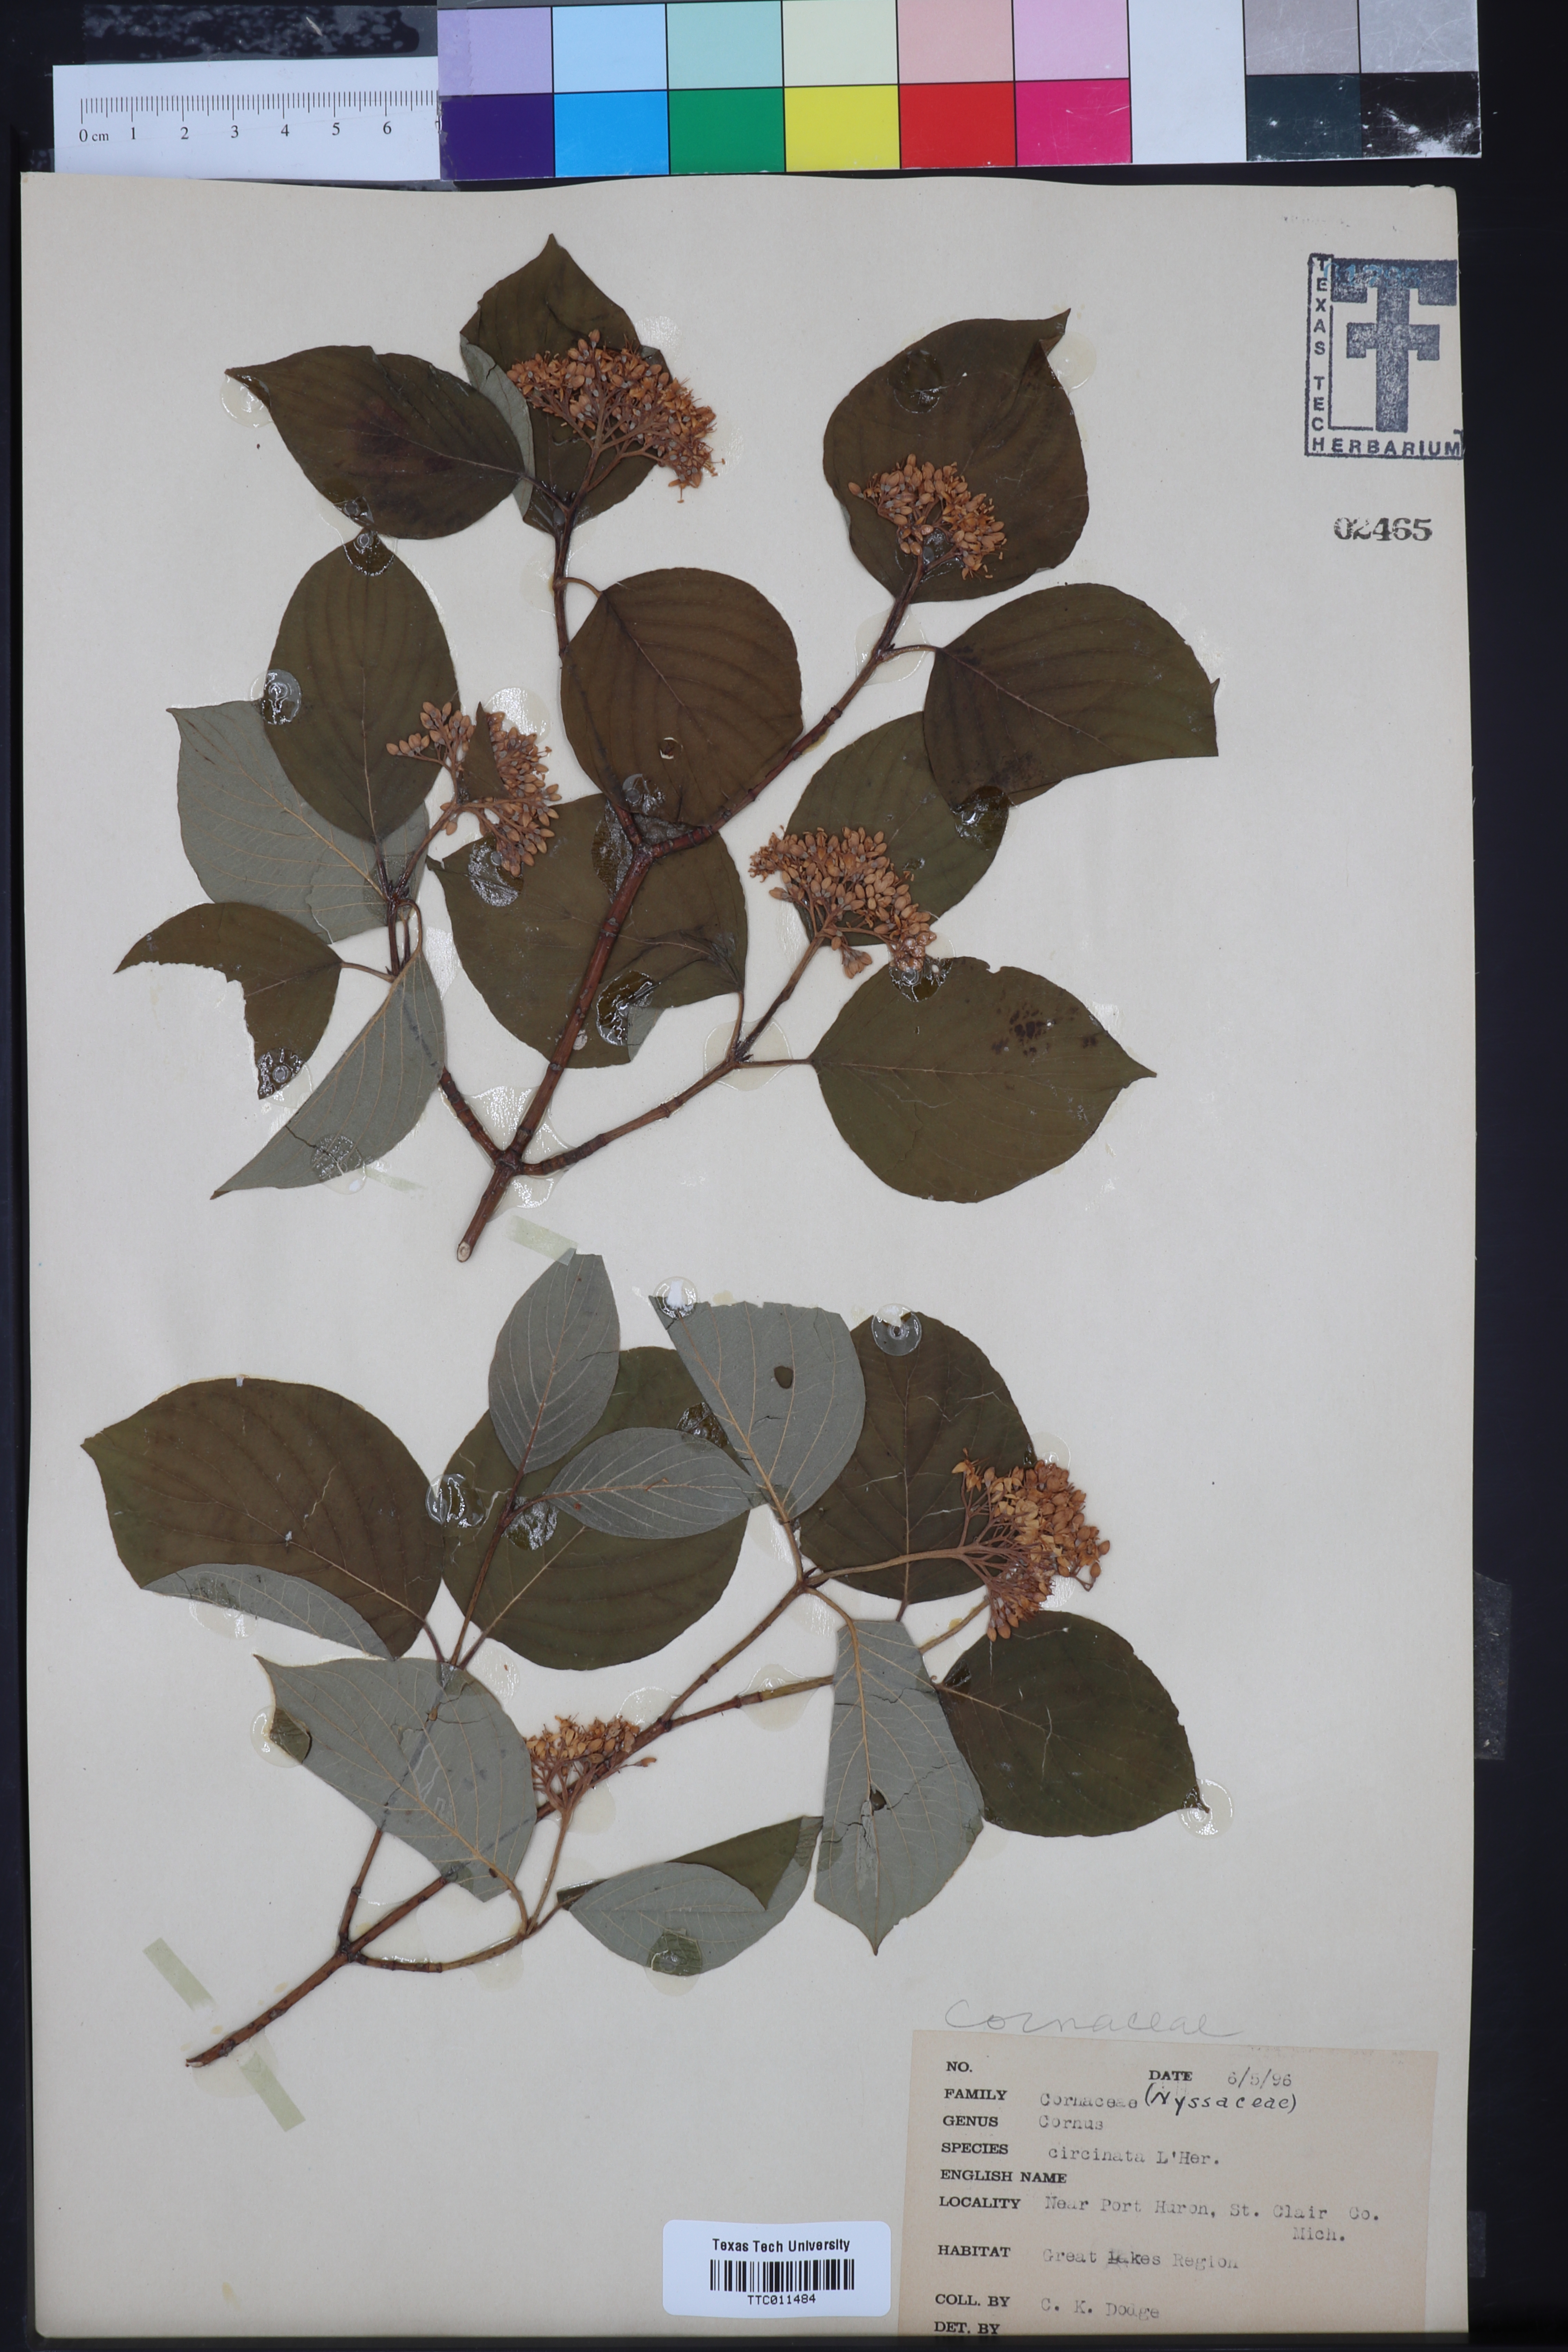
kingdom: Plantae
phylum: Tracheophyta
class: Magnoliopsida
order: Cornales
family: Cornaceae
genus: Cornus
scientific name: Cornus canadensis
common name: Creeping dogwood
